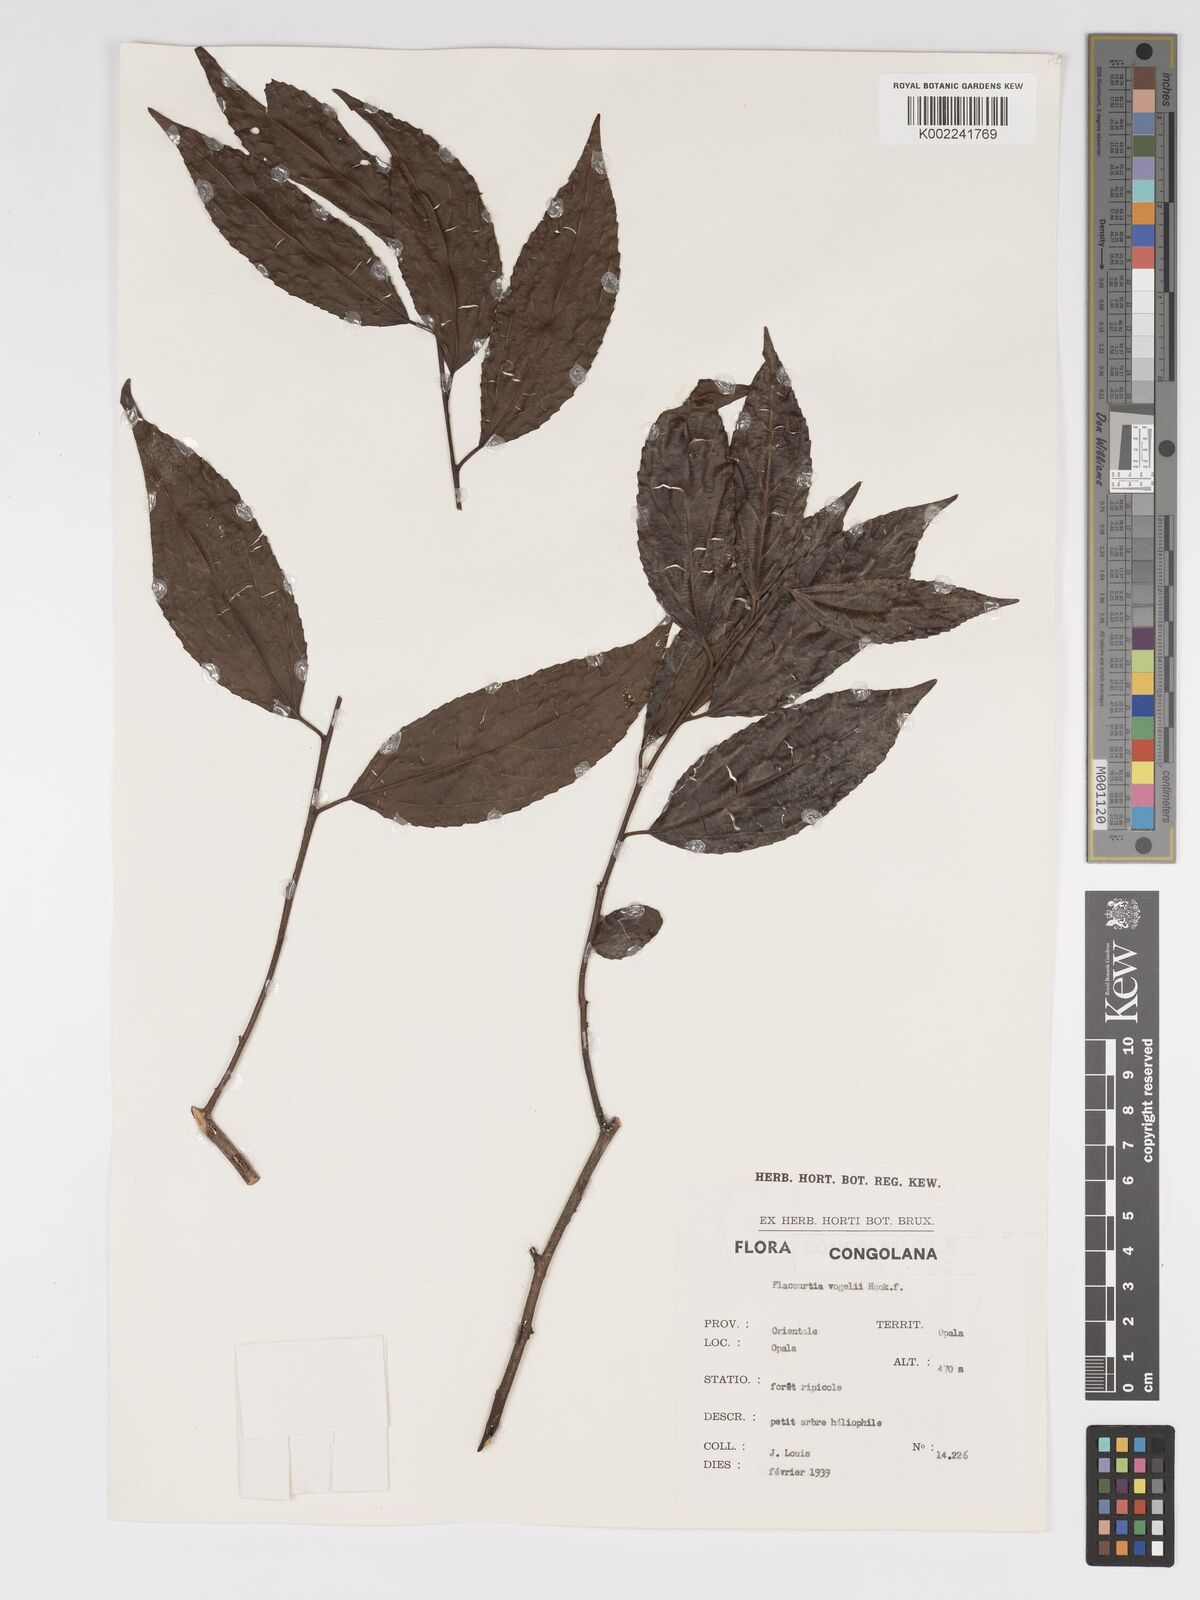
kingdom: Plantae
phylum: Tracheophyta
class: Magnoliopsida
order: Malpighiales
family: Salicaceae
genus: Flacourtia
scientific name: Flacourtia vogelii
